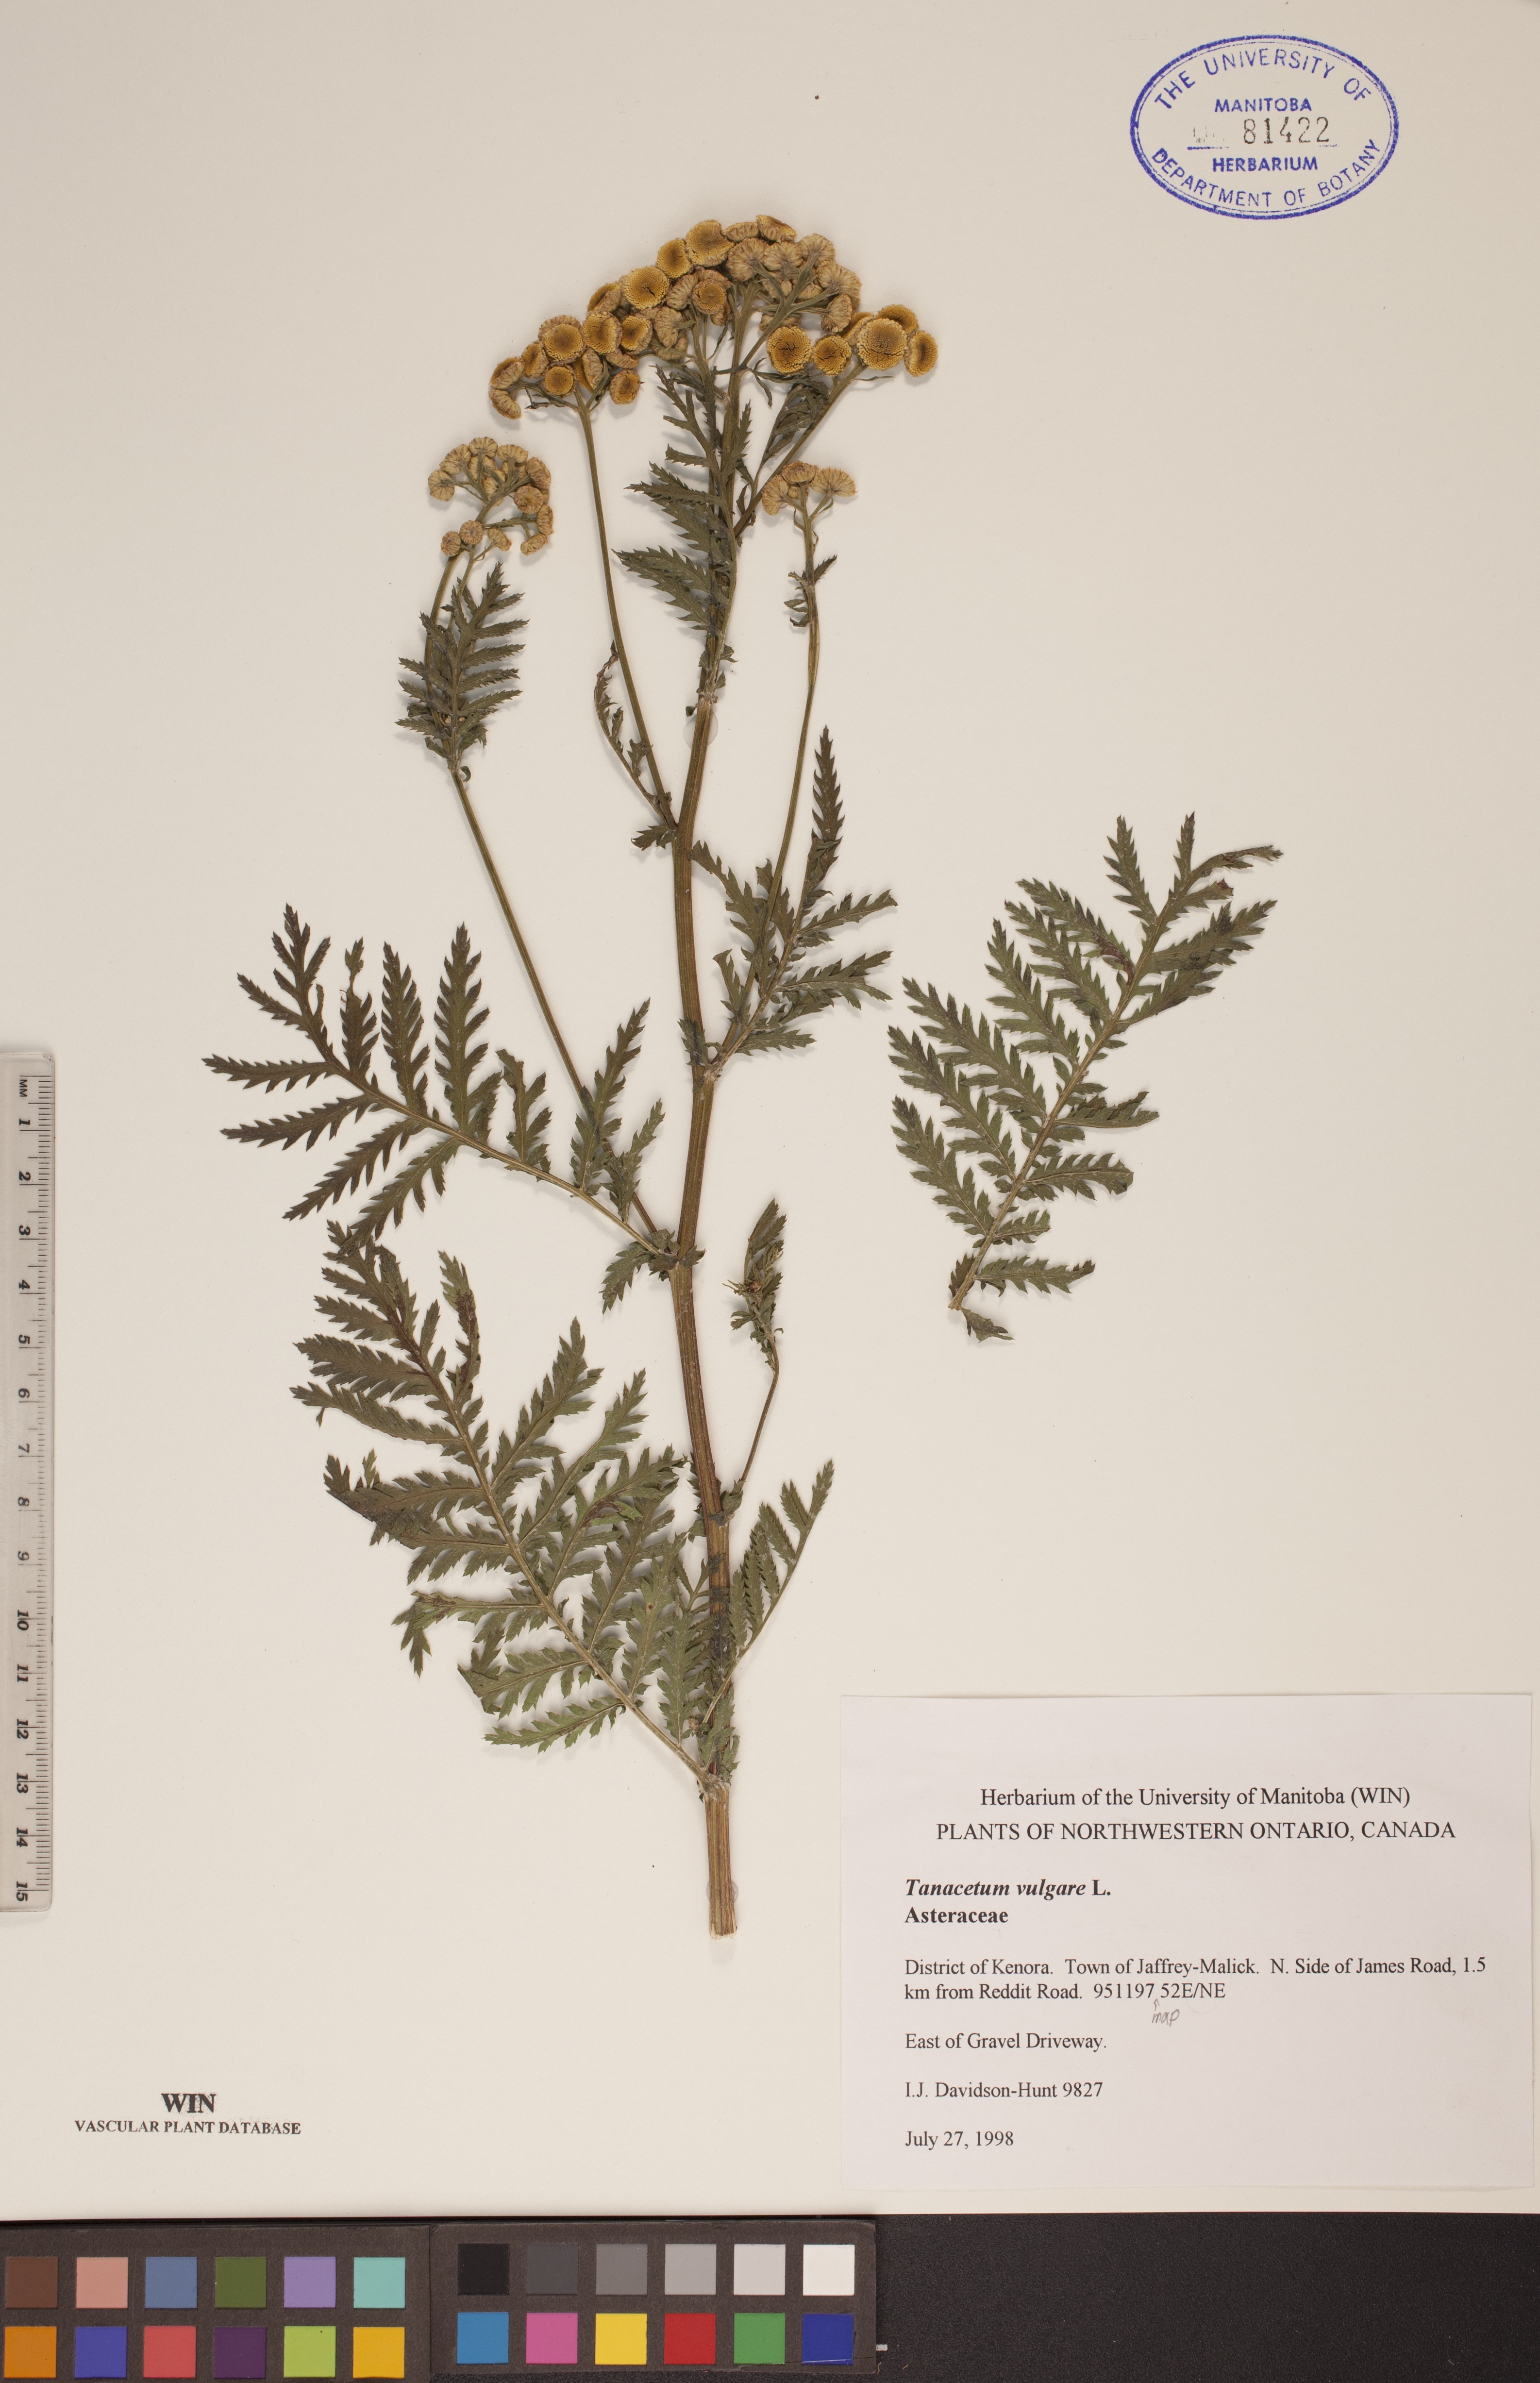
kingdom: Plantae
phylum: Tracheophyta
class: Magnoliopsida
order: Asterales
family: Asteraceae
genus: Tanacetum
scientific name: Tanacetum vulgare
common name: Common tansy
